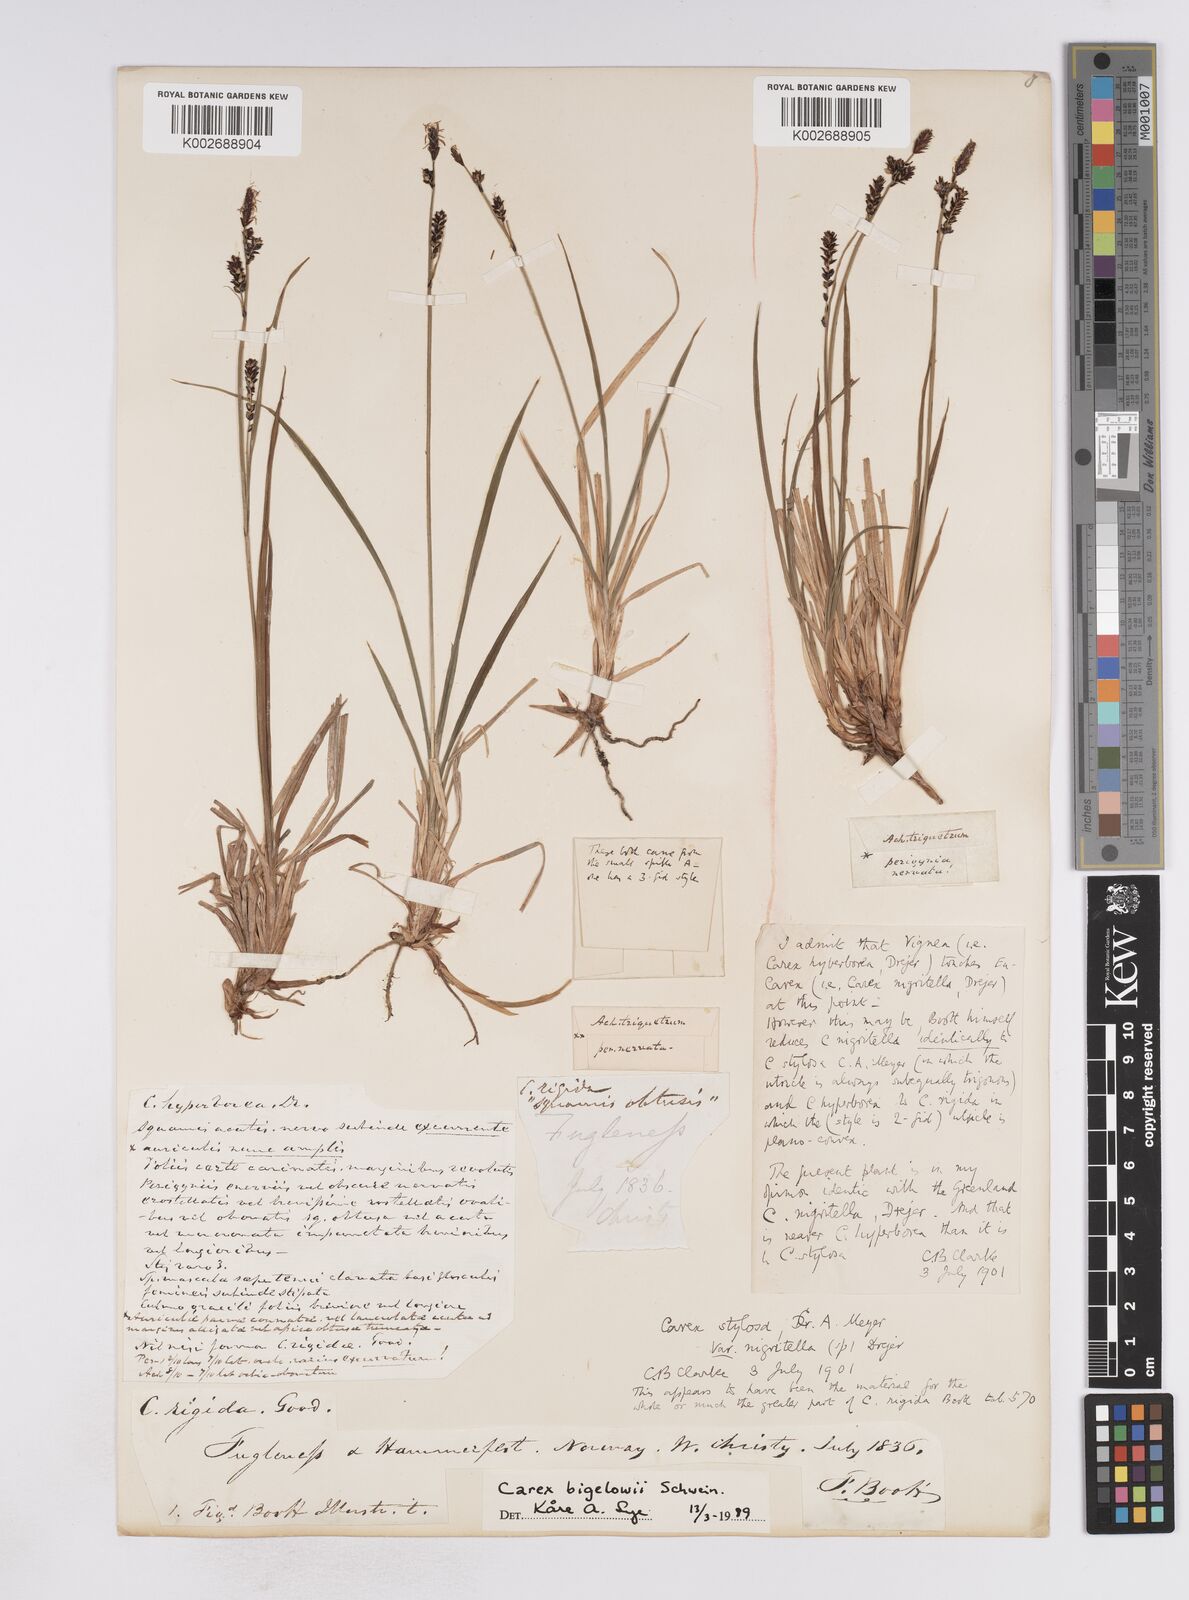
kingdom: Plantae
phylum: Tracheophyta
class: Liliopsida
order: Poales
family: Cyperaceae
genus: Carex
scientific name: Carex stylosa
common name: Long-styled sedge
